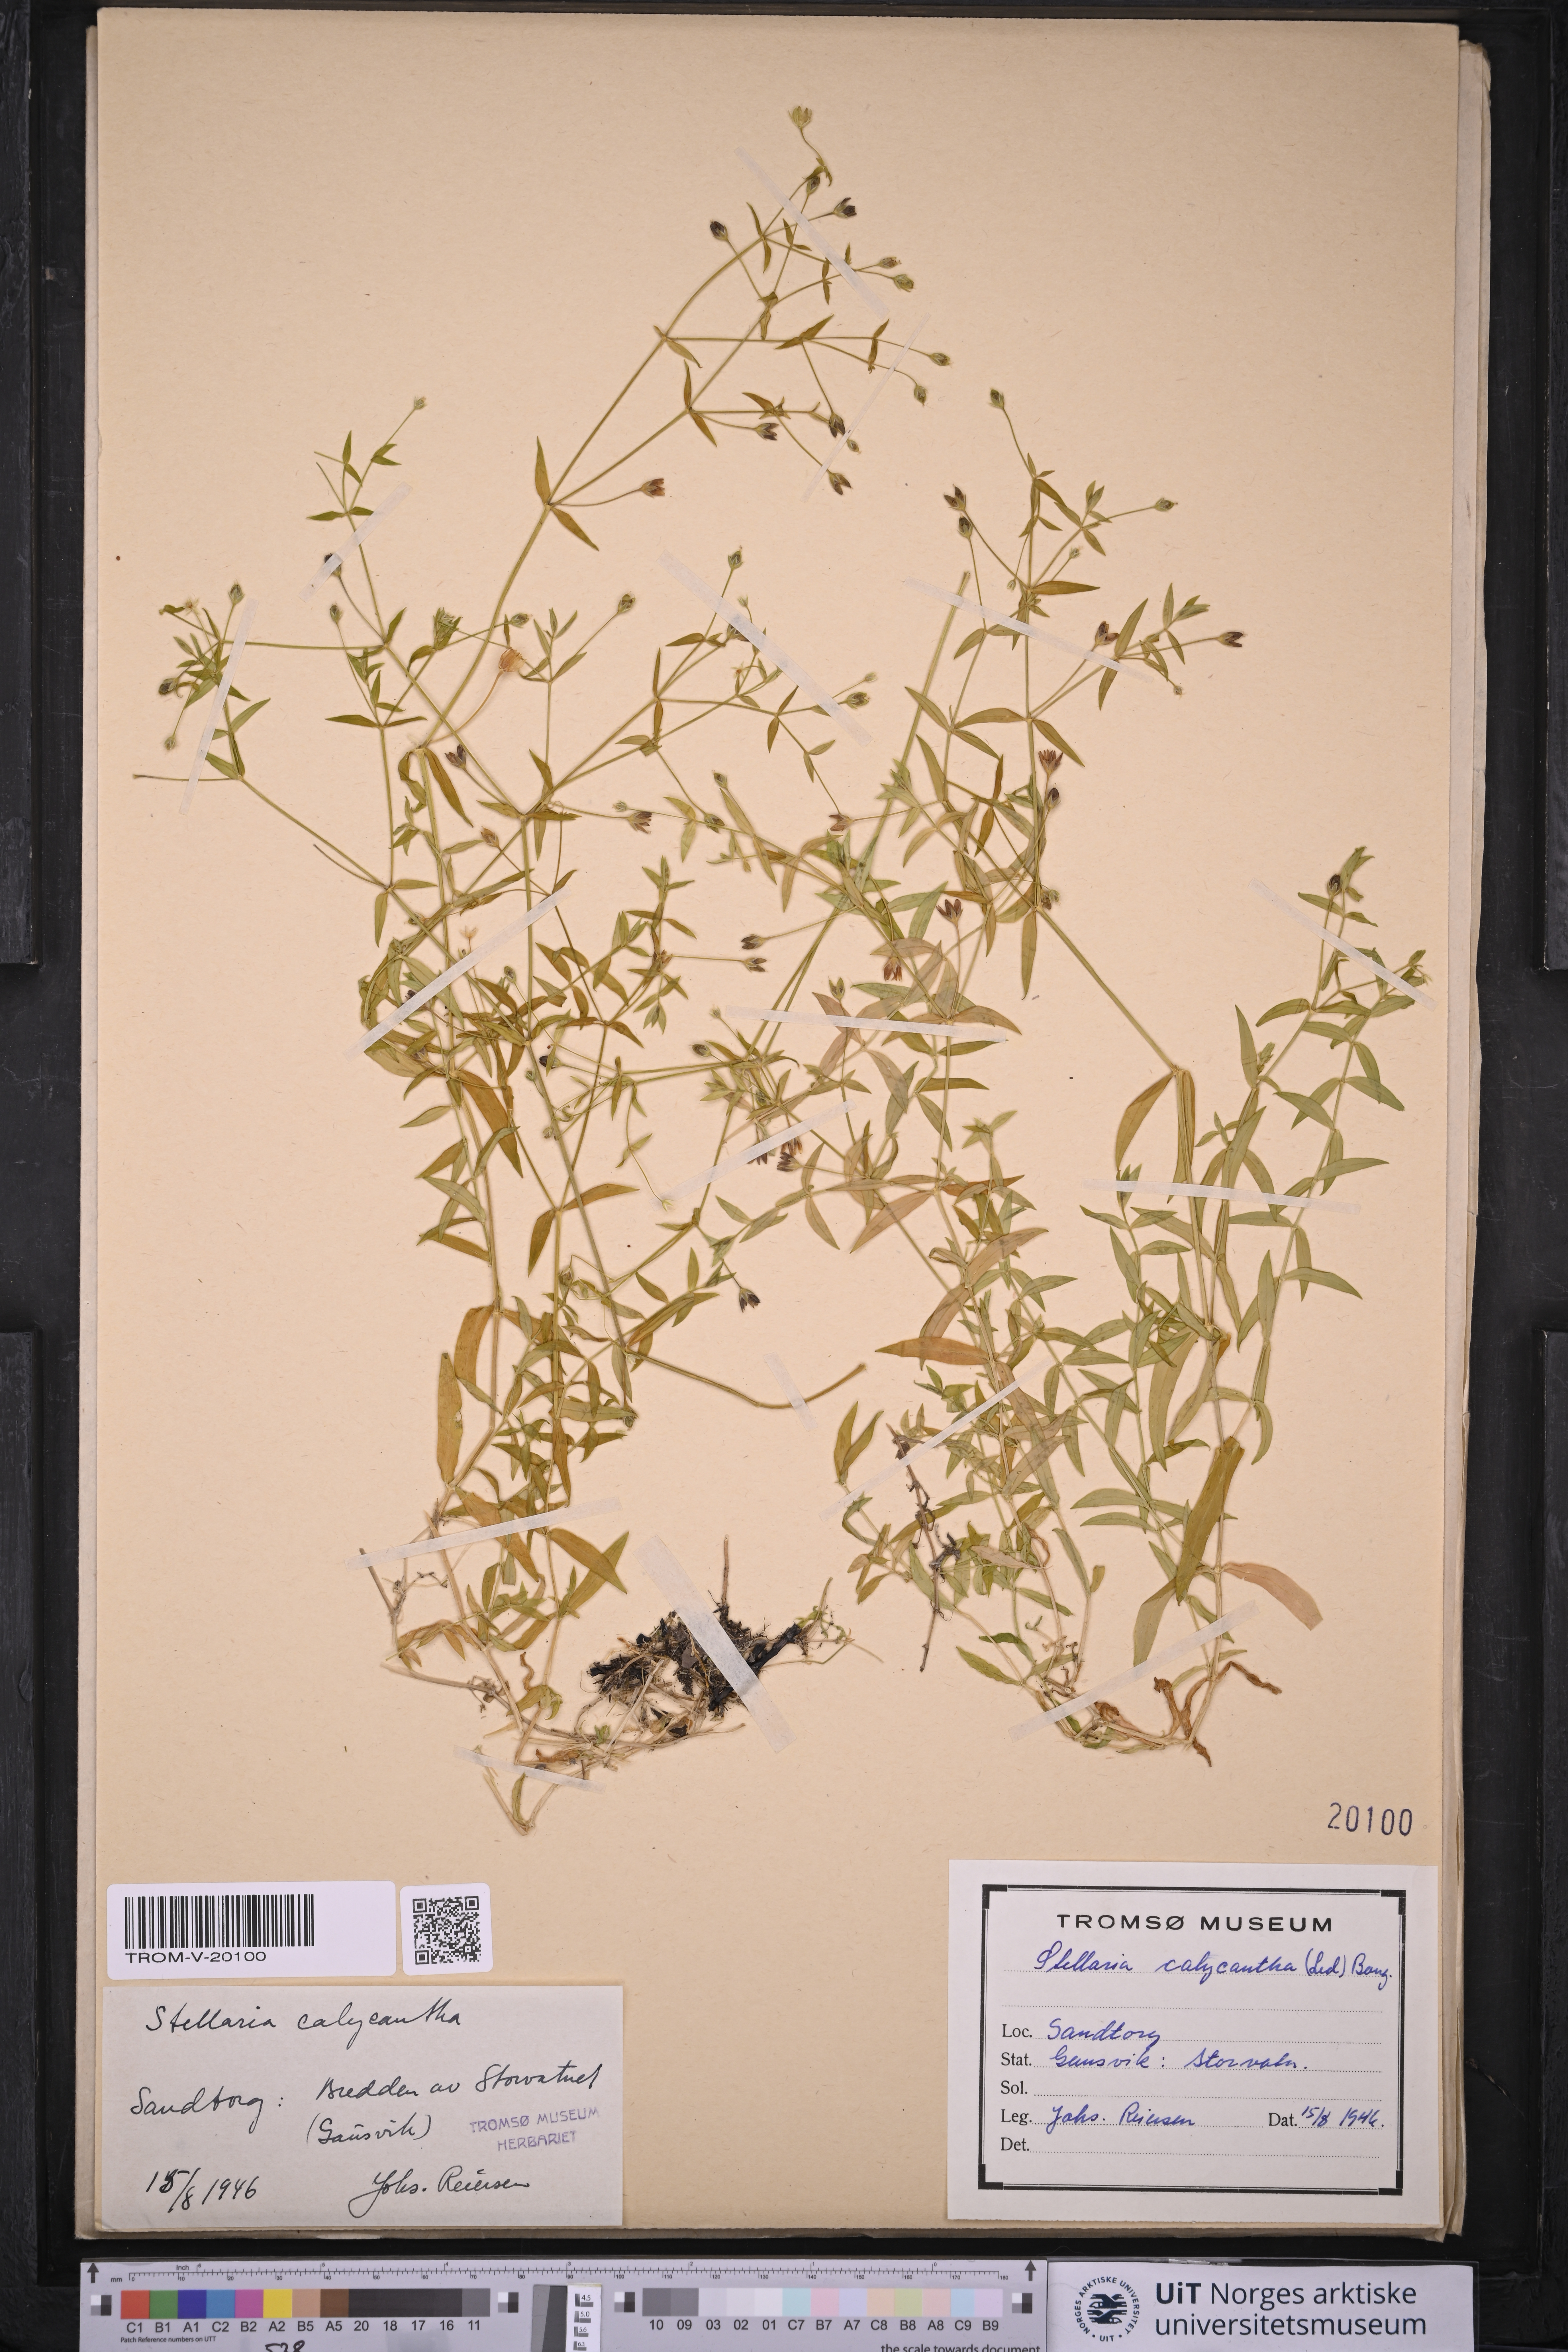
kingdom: Plantae
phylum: Tracheophyta
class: Magnoliopsida
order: Caryophyllales
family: Caryophyllaceae
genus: Stellaria
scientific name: Stellaria borealis
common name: Boreal starwort
